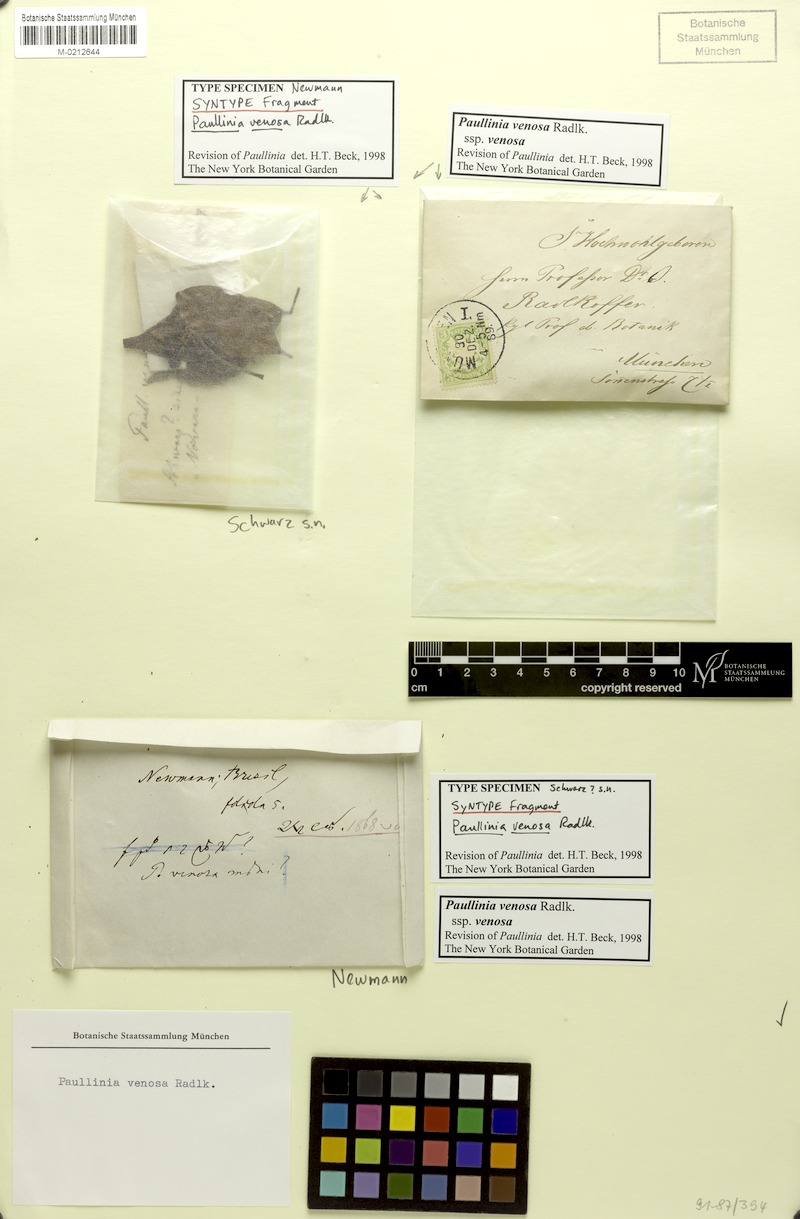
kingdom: Plantae
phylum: Tracheophyta
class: Magnoliopsida
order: Sapindales
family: Sapindaceae
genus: Paullinia
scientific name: Paullinia venosa
